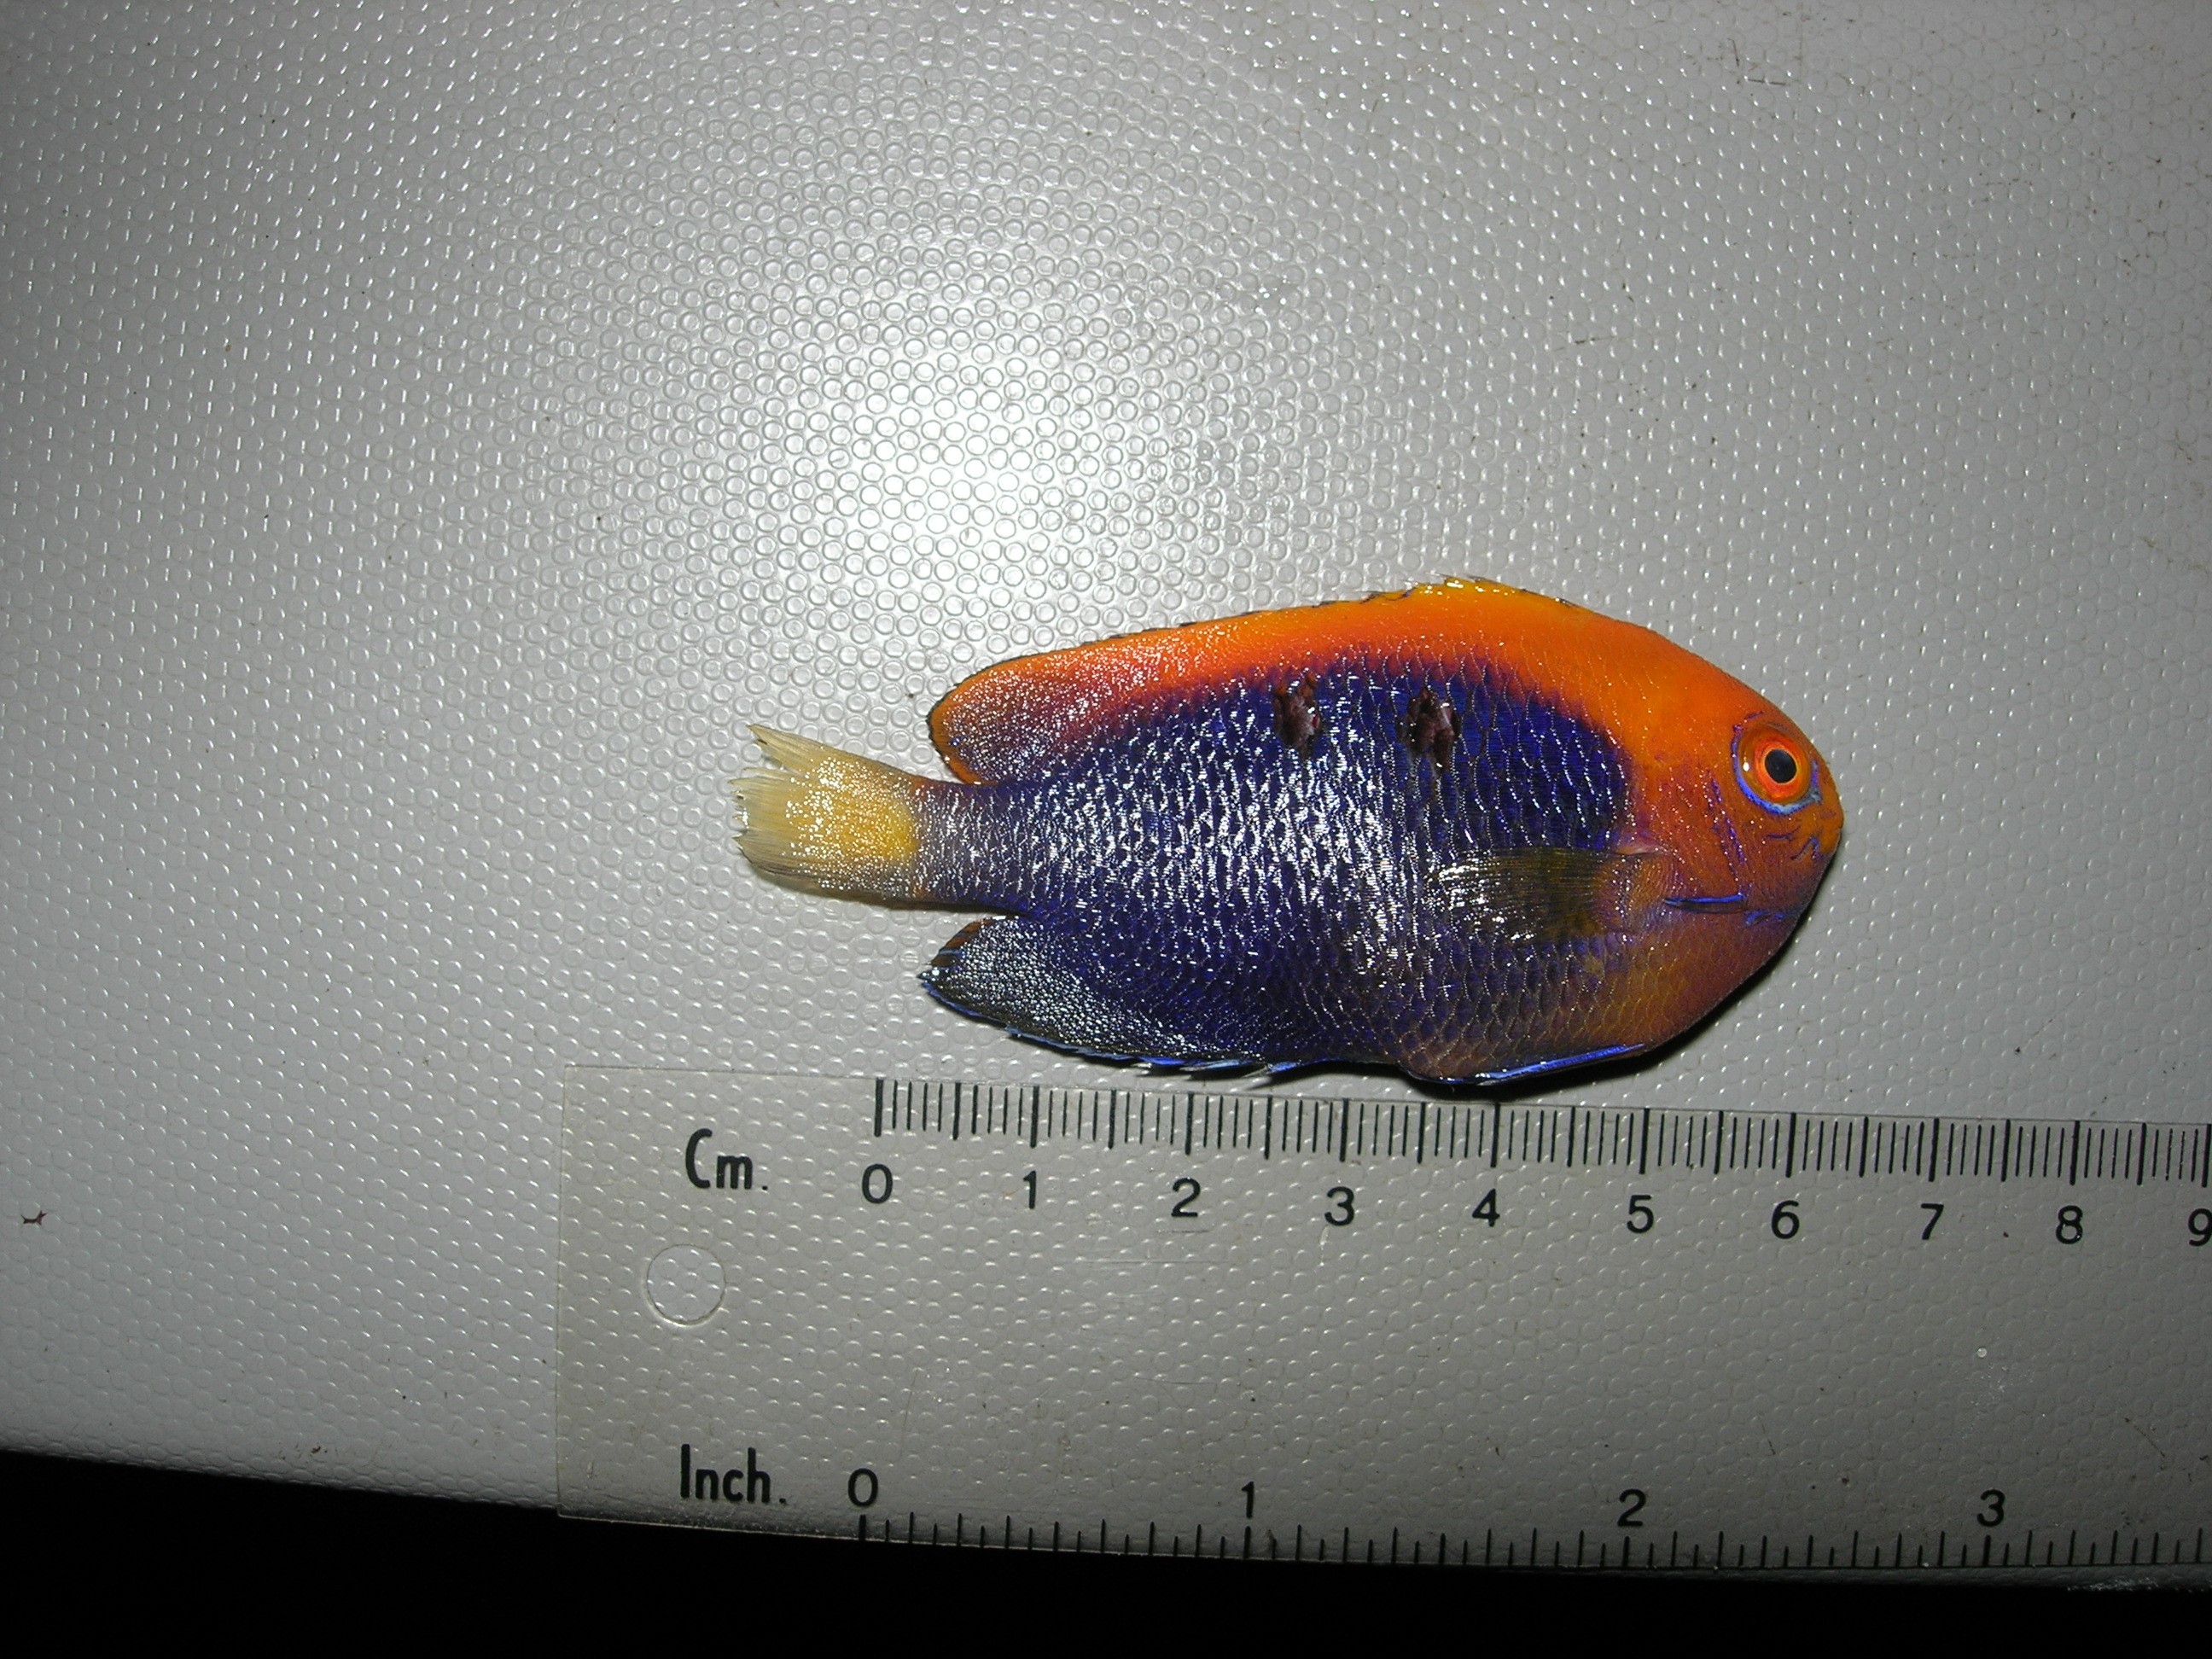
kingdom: Animalia
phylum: Chordata
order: Perciformes
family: Pomacanthidae
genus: Centropyge
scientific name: Centropyge acanthops
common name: African pygmy angelfish
